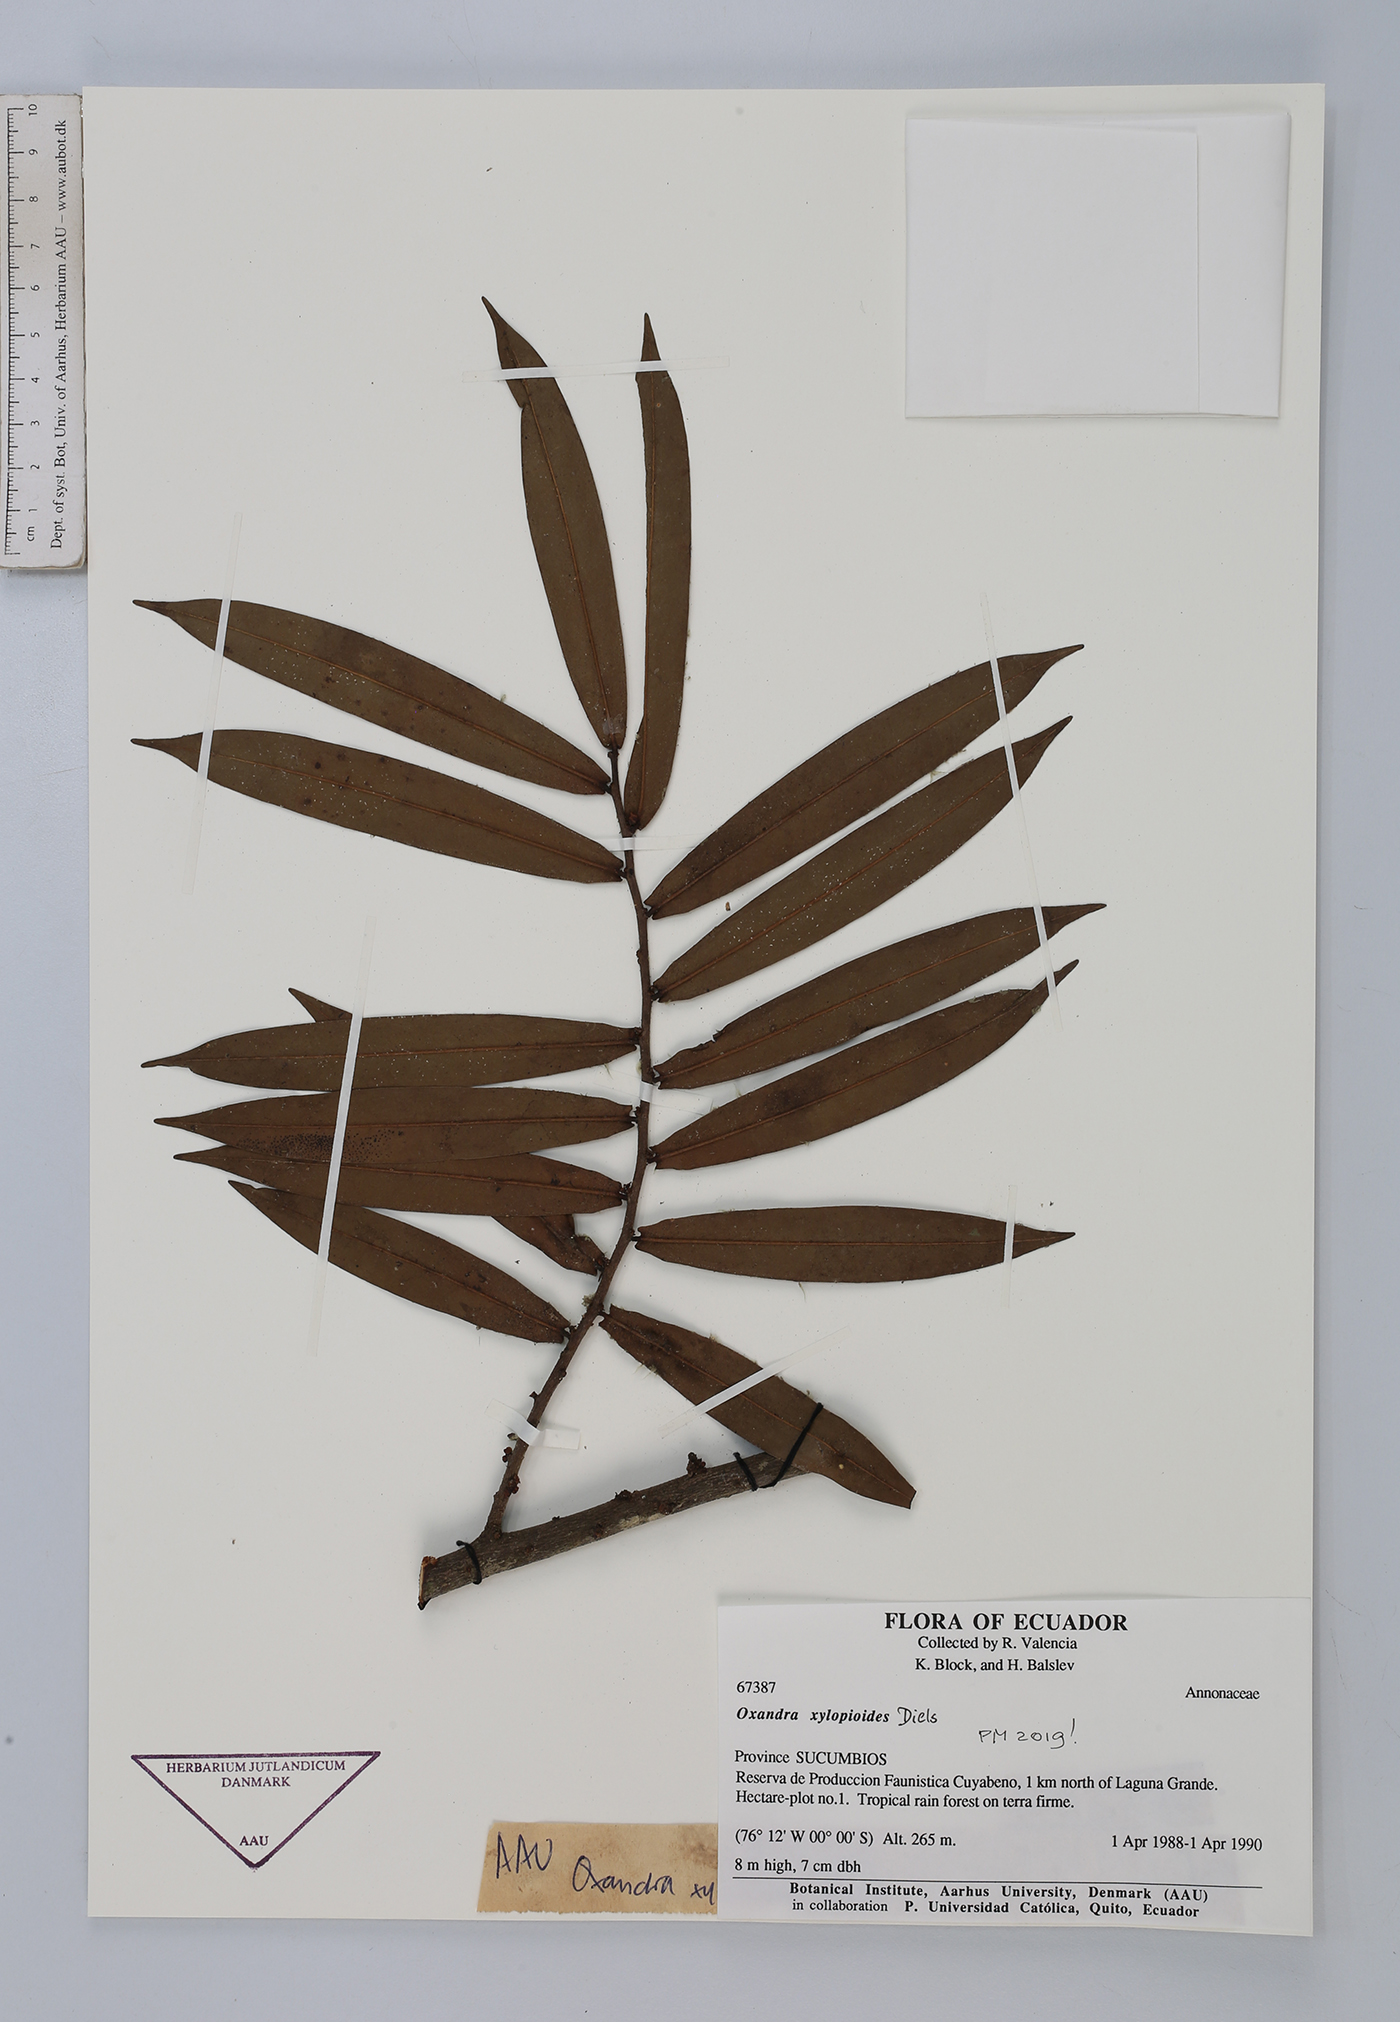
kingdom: Plantae
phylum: Tracheophyta
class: Magnoliopsida
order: Magnoliales
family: Annonaceae
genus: Oxandra
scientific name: Oxandra xylopioides
